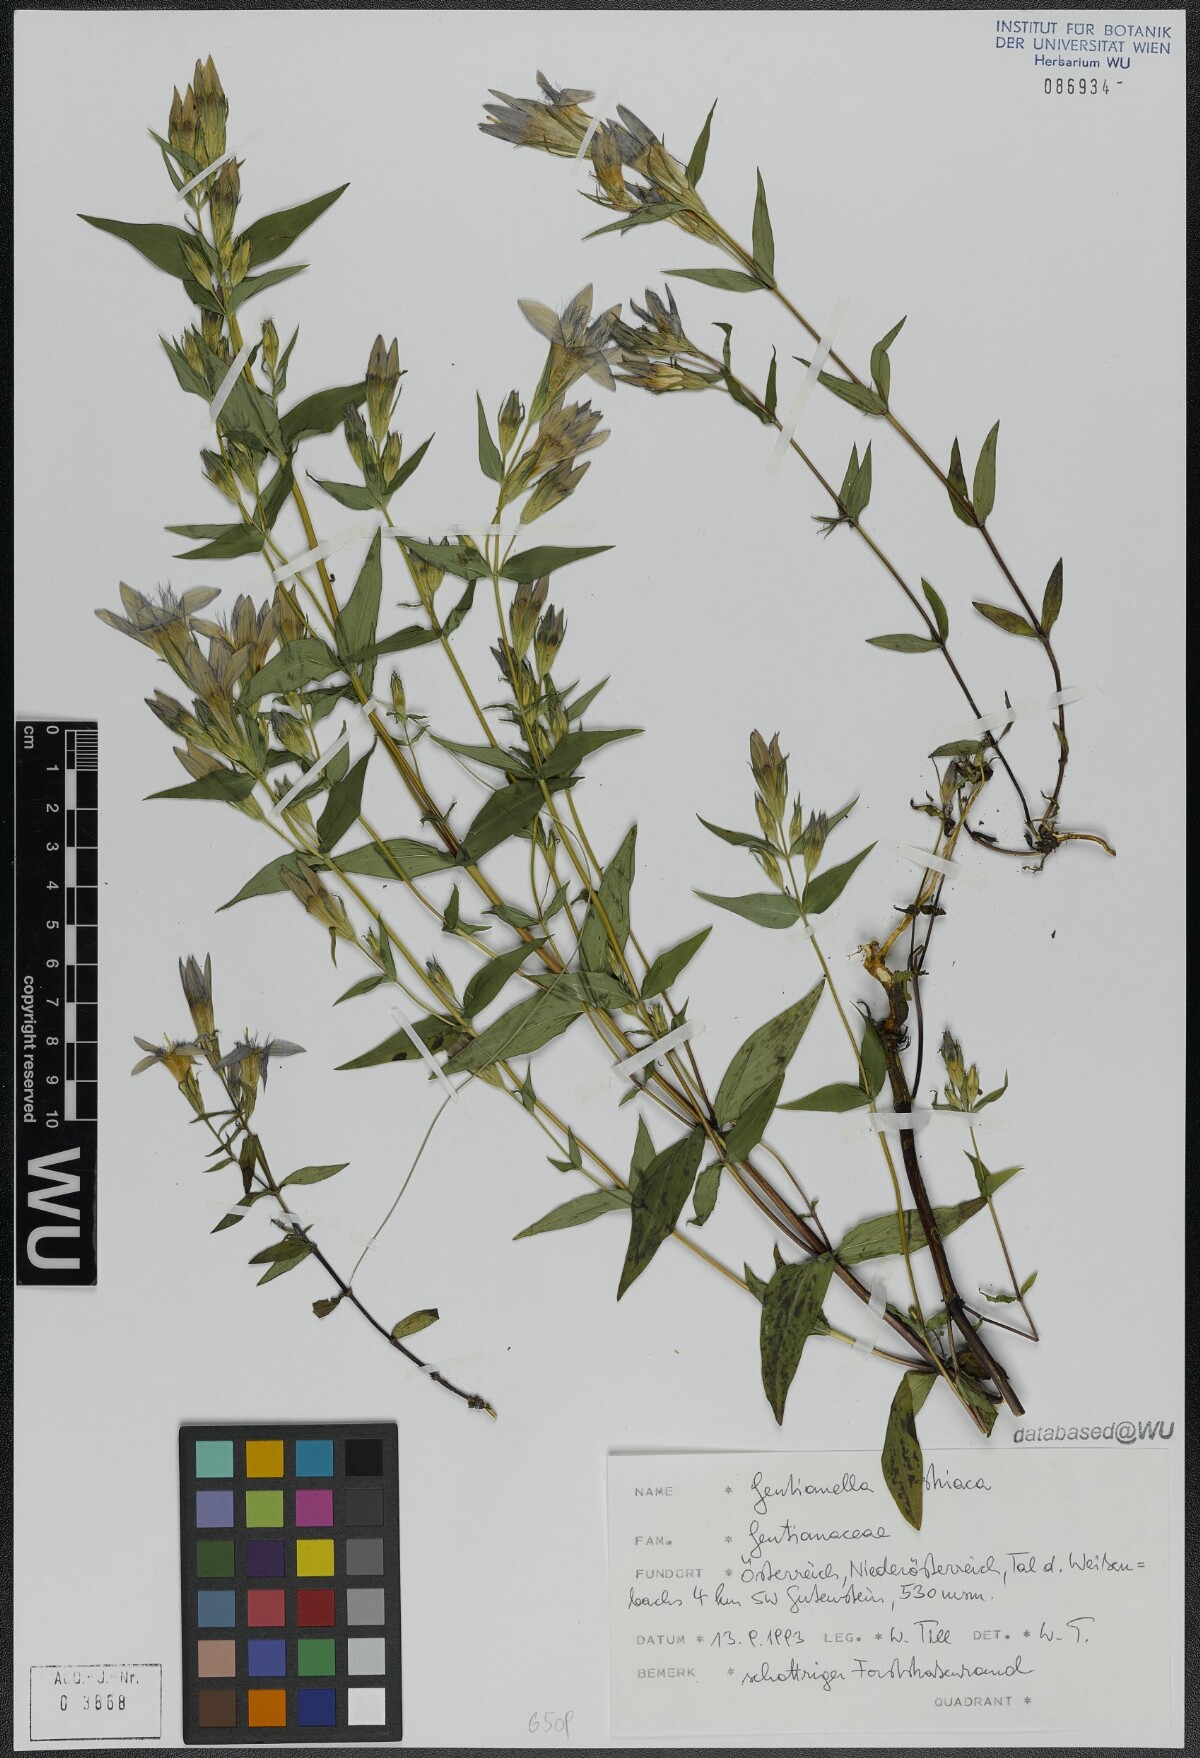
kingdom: Plantae
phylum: Tracheophyta
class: Magnoliopsida
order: Gentianales
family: Gentianaceae
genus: Gentianella
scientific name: Gentianella austriaca
